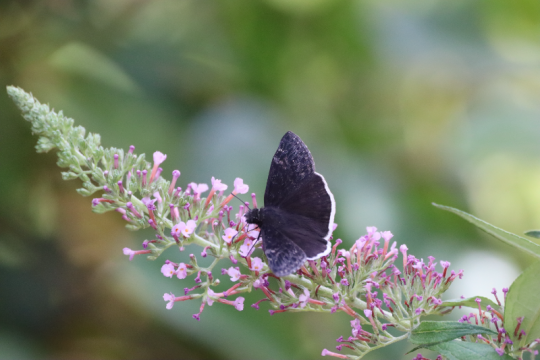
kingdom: Animalia
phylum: Arthropoda
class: Insecta
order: Lepidoptera
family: Hesperiidae
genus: Erynnis
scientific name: Erynnis funeralis
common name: Funereal Duskywing
